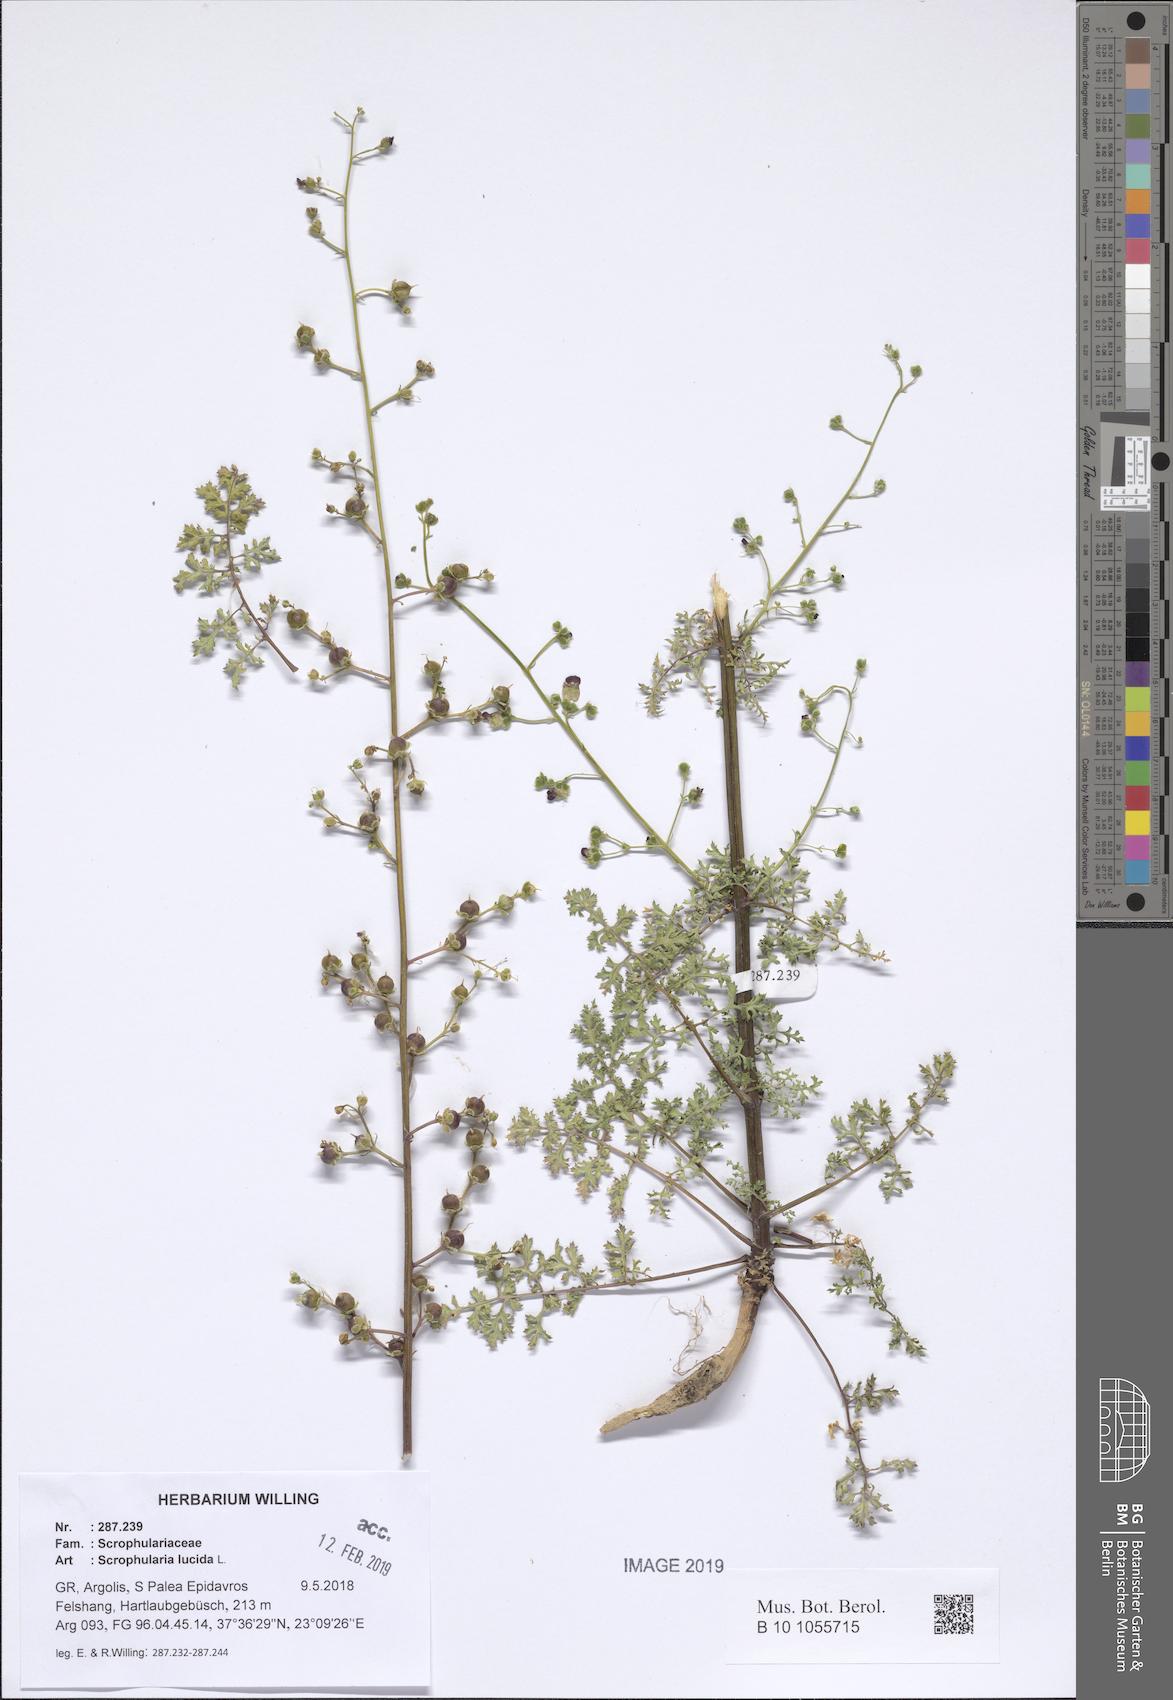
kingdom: Plantae
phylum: Tracheophyta
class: Magnoliopsida
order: Lamiales
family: Scrophulariaceae
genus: Scrophularia
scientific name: Scrophularia lucida
